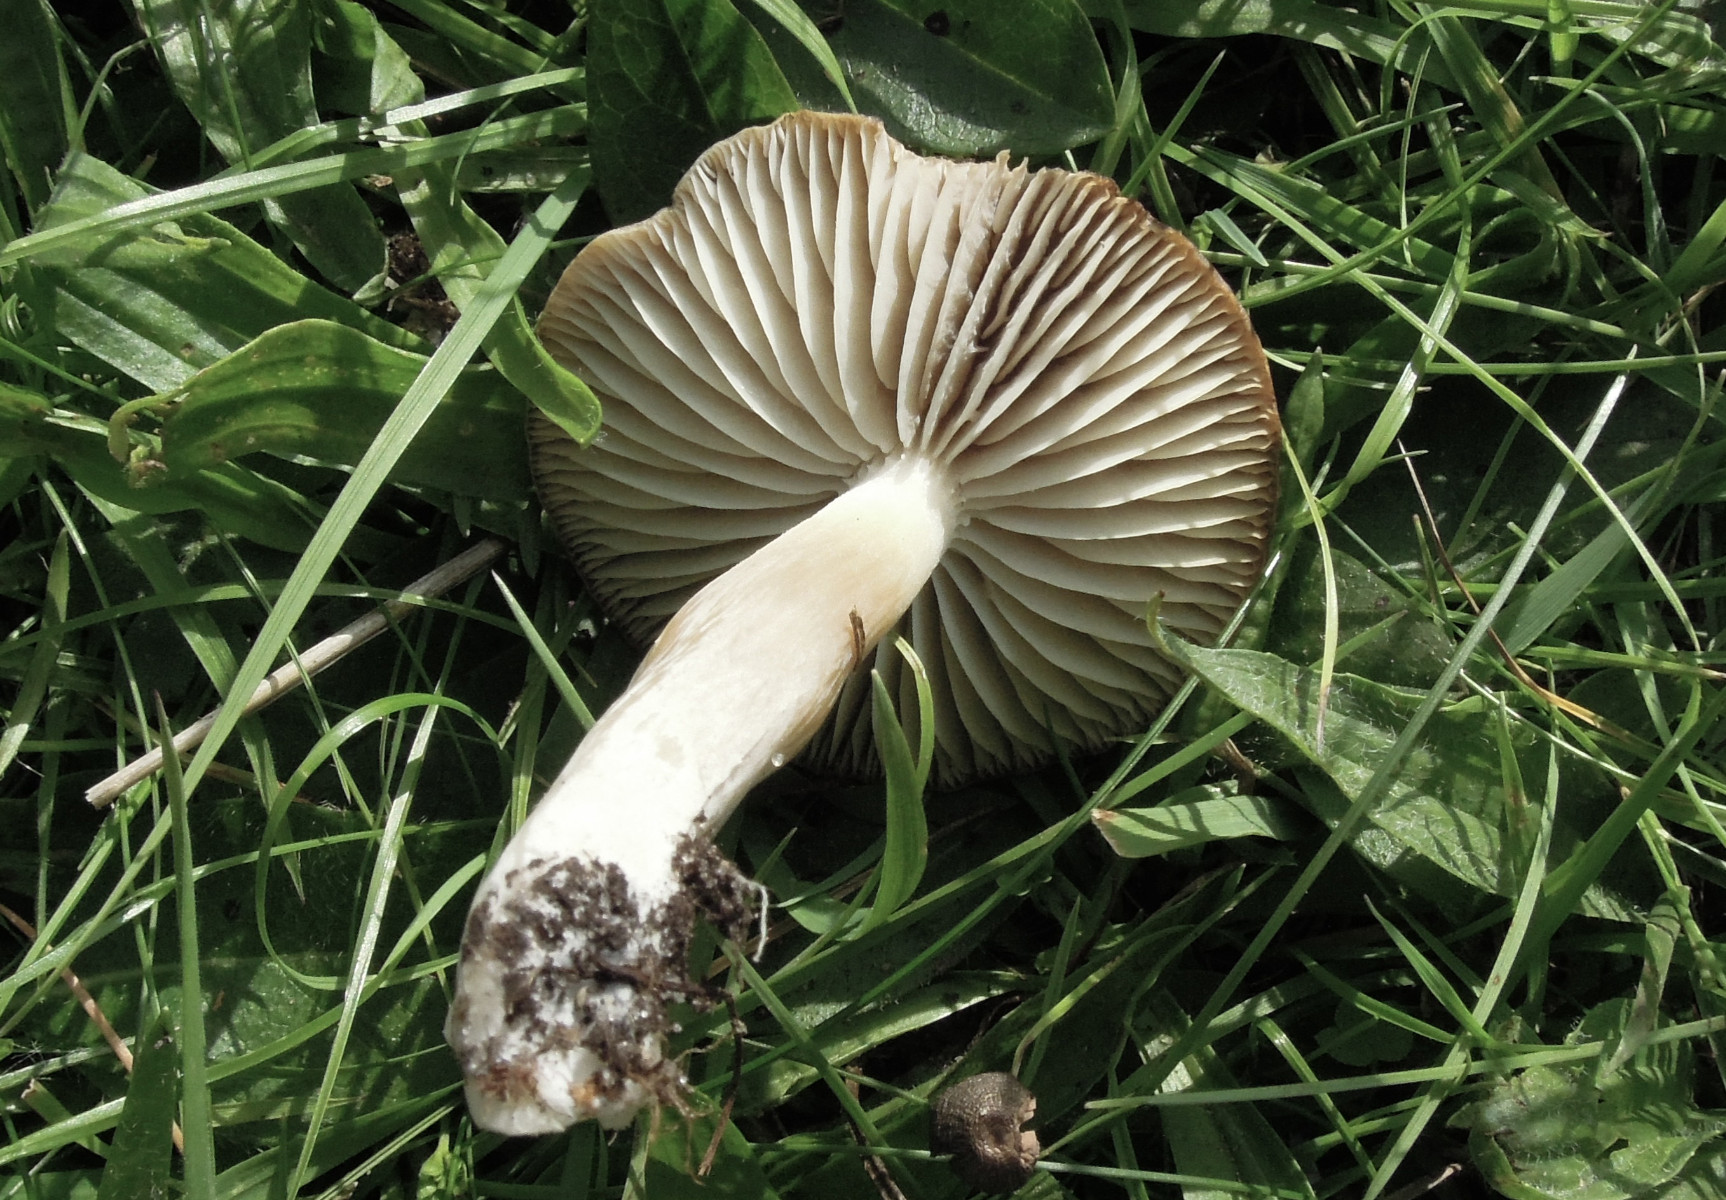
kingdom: Fungi
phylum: Basidiomycota
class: Agaricomycetes
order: Agaricales
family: Hygrophoraceae
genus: Neohygrocybe
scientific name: Neohygrocybe nitrata
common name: stinkende vokshat
